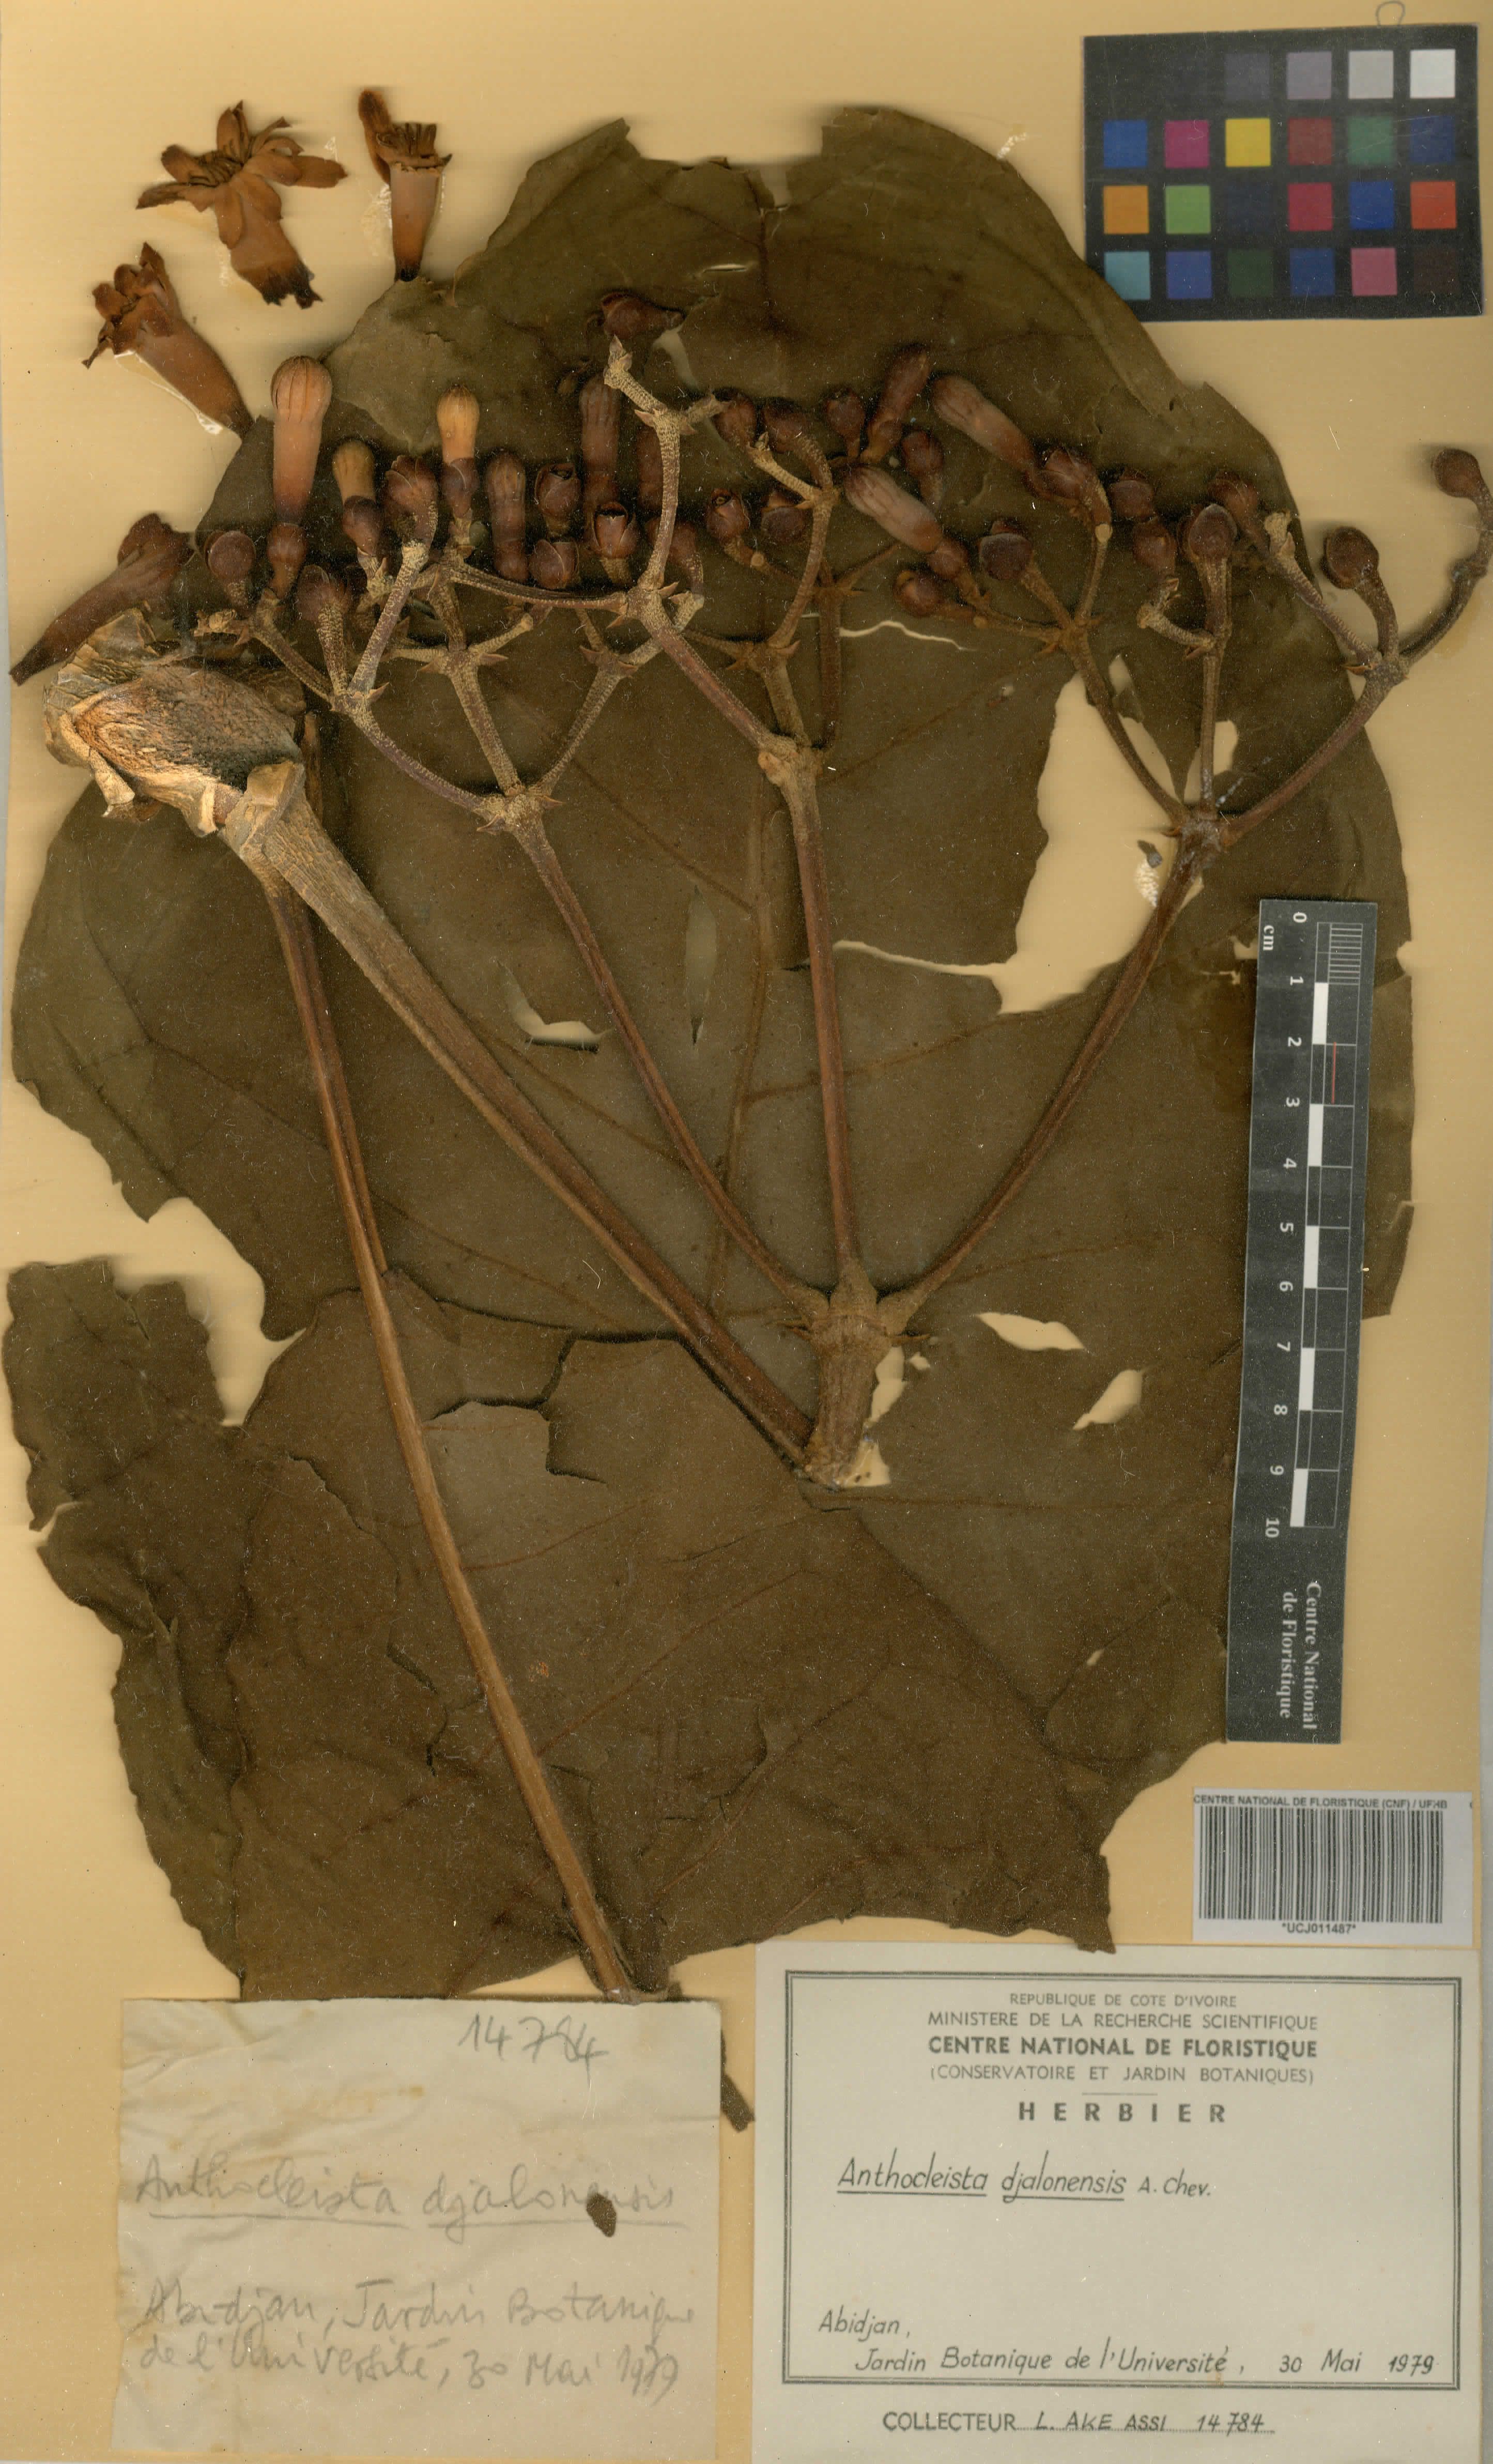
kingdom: Plantae
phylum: Tracheophyta
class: Magnoliopsida
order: Gentianales
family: Gentianaceae
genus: Anthocleista
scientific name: Anthocleista djalonensis
